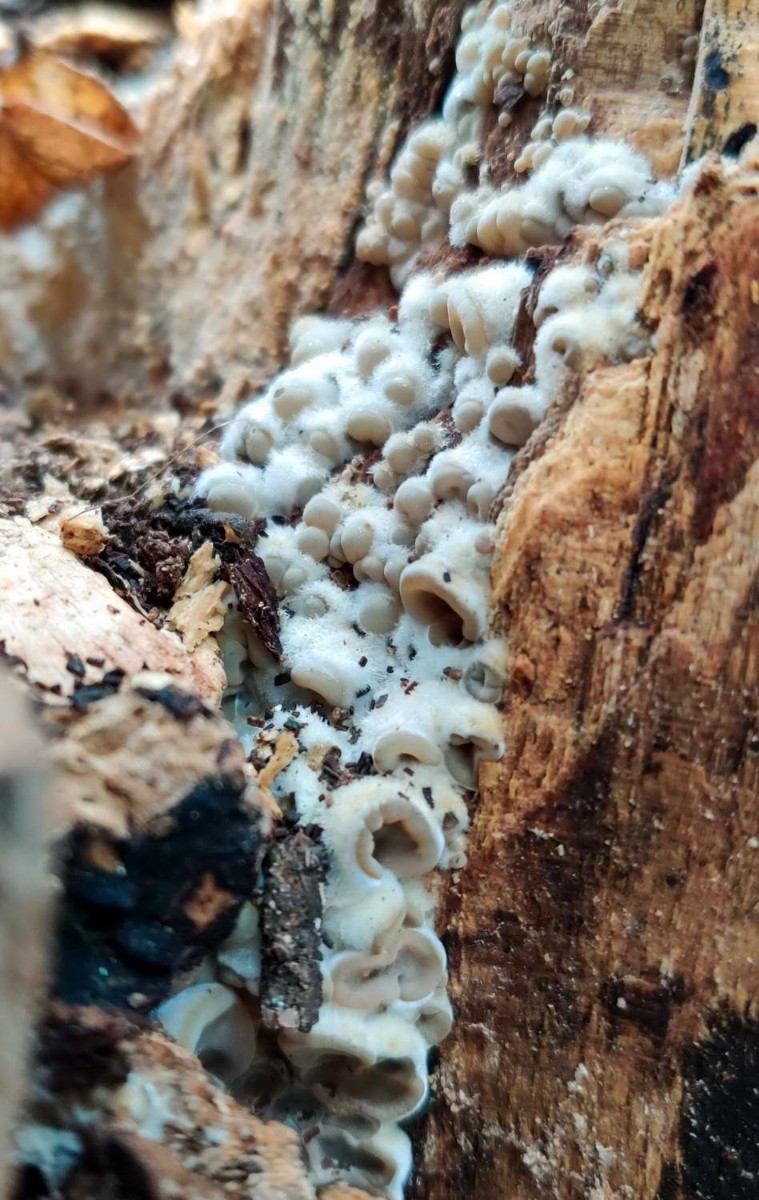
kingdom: Fungi
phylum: Basidiomycota
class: Agaricomycetes
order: Auriculariales
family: Auriculariaceae
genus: Auricularia
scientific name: Auricularia mesenterica
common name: håret judasøre
